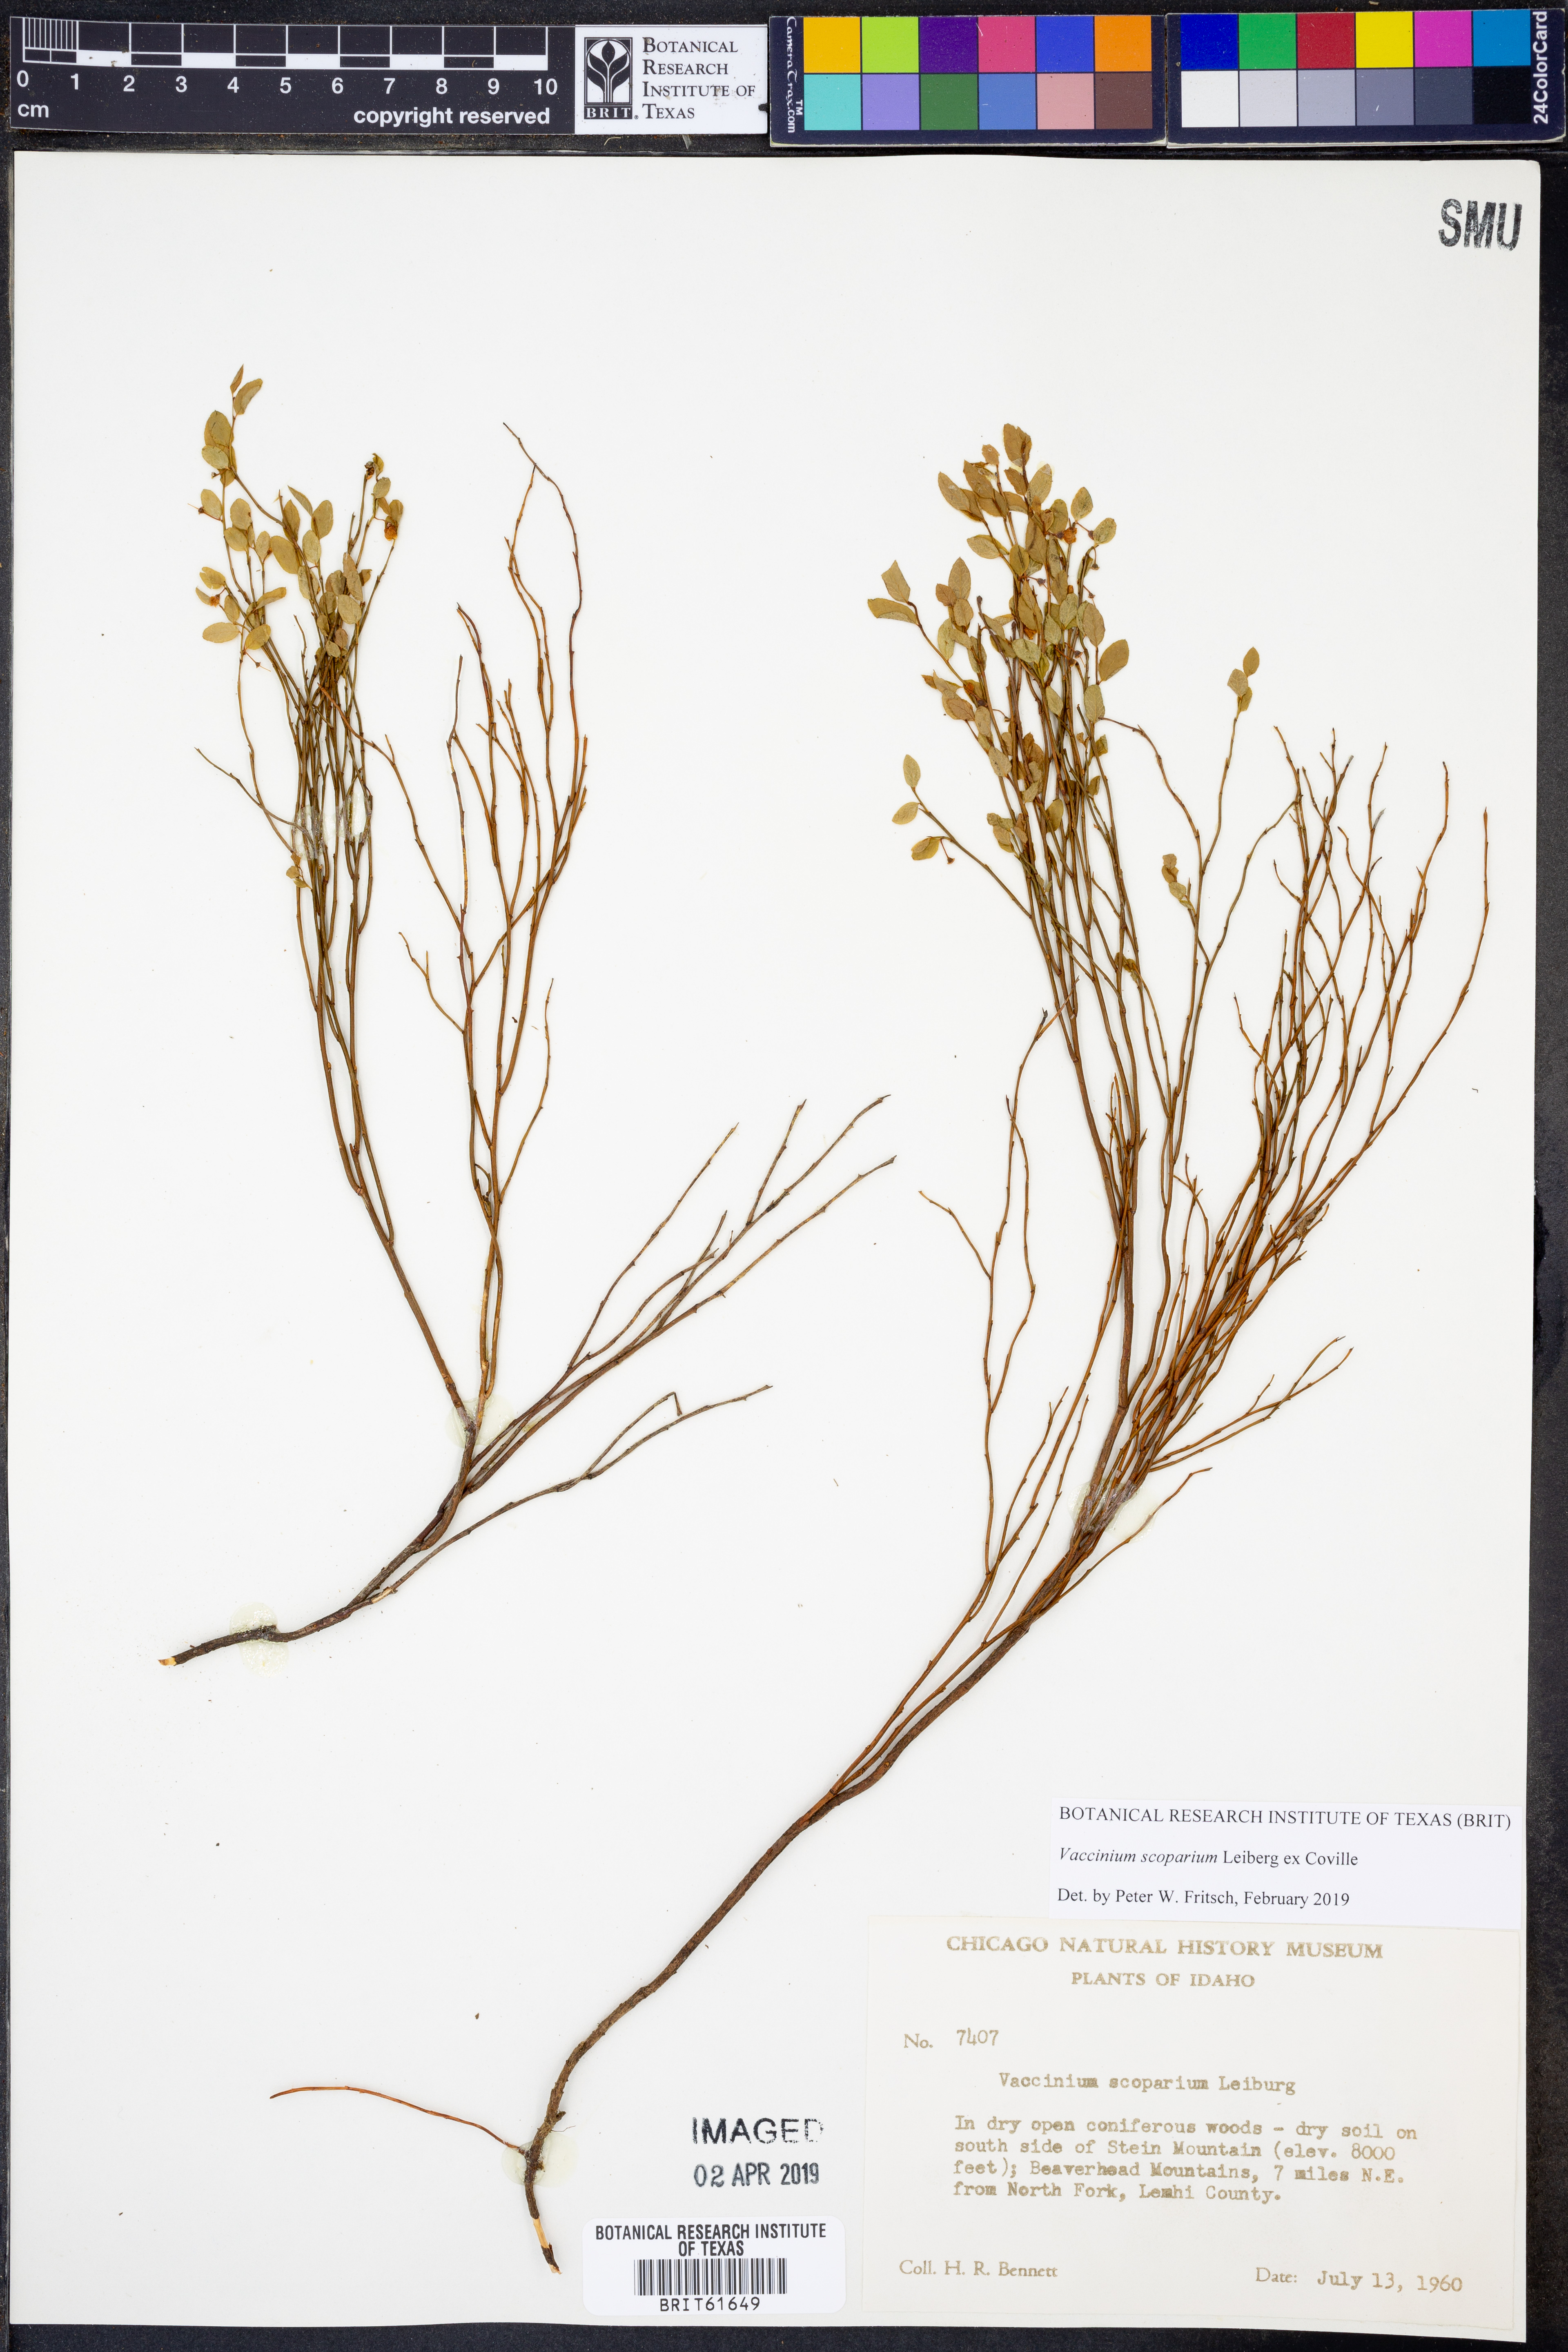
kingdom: Plantae
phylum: Tracheophyta
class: Magnoliopsida
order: Ericales
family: Ericaceae
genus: Vaccinium
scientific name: Vaccinium scoparium
